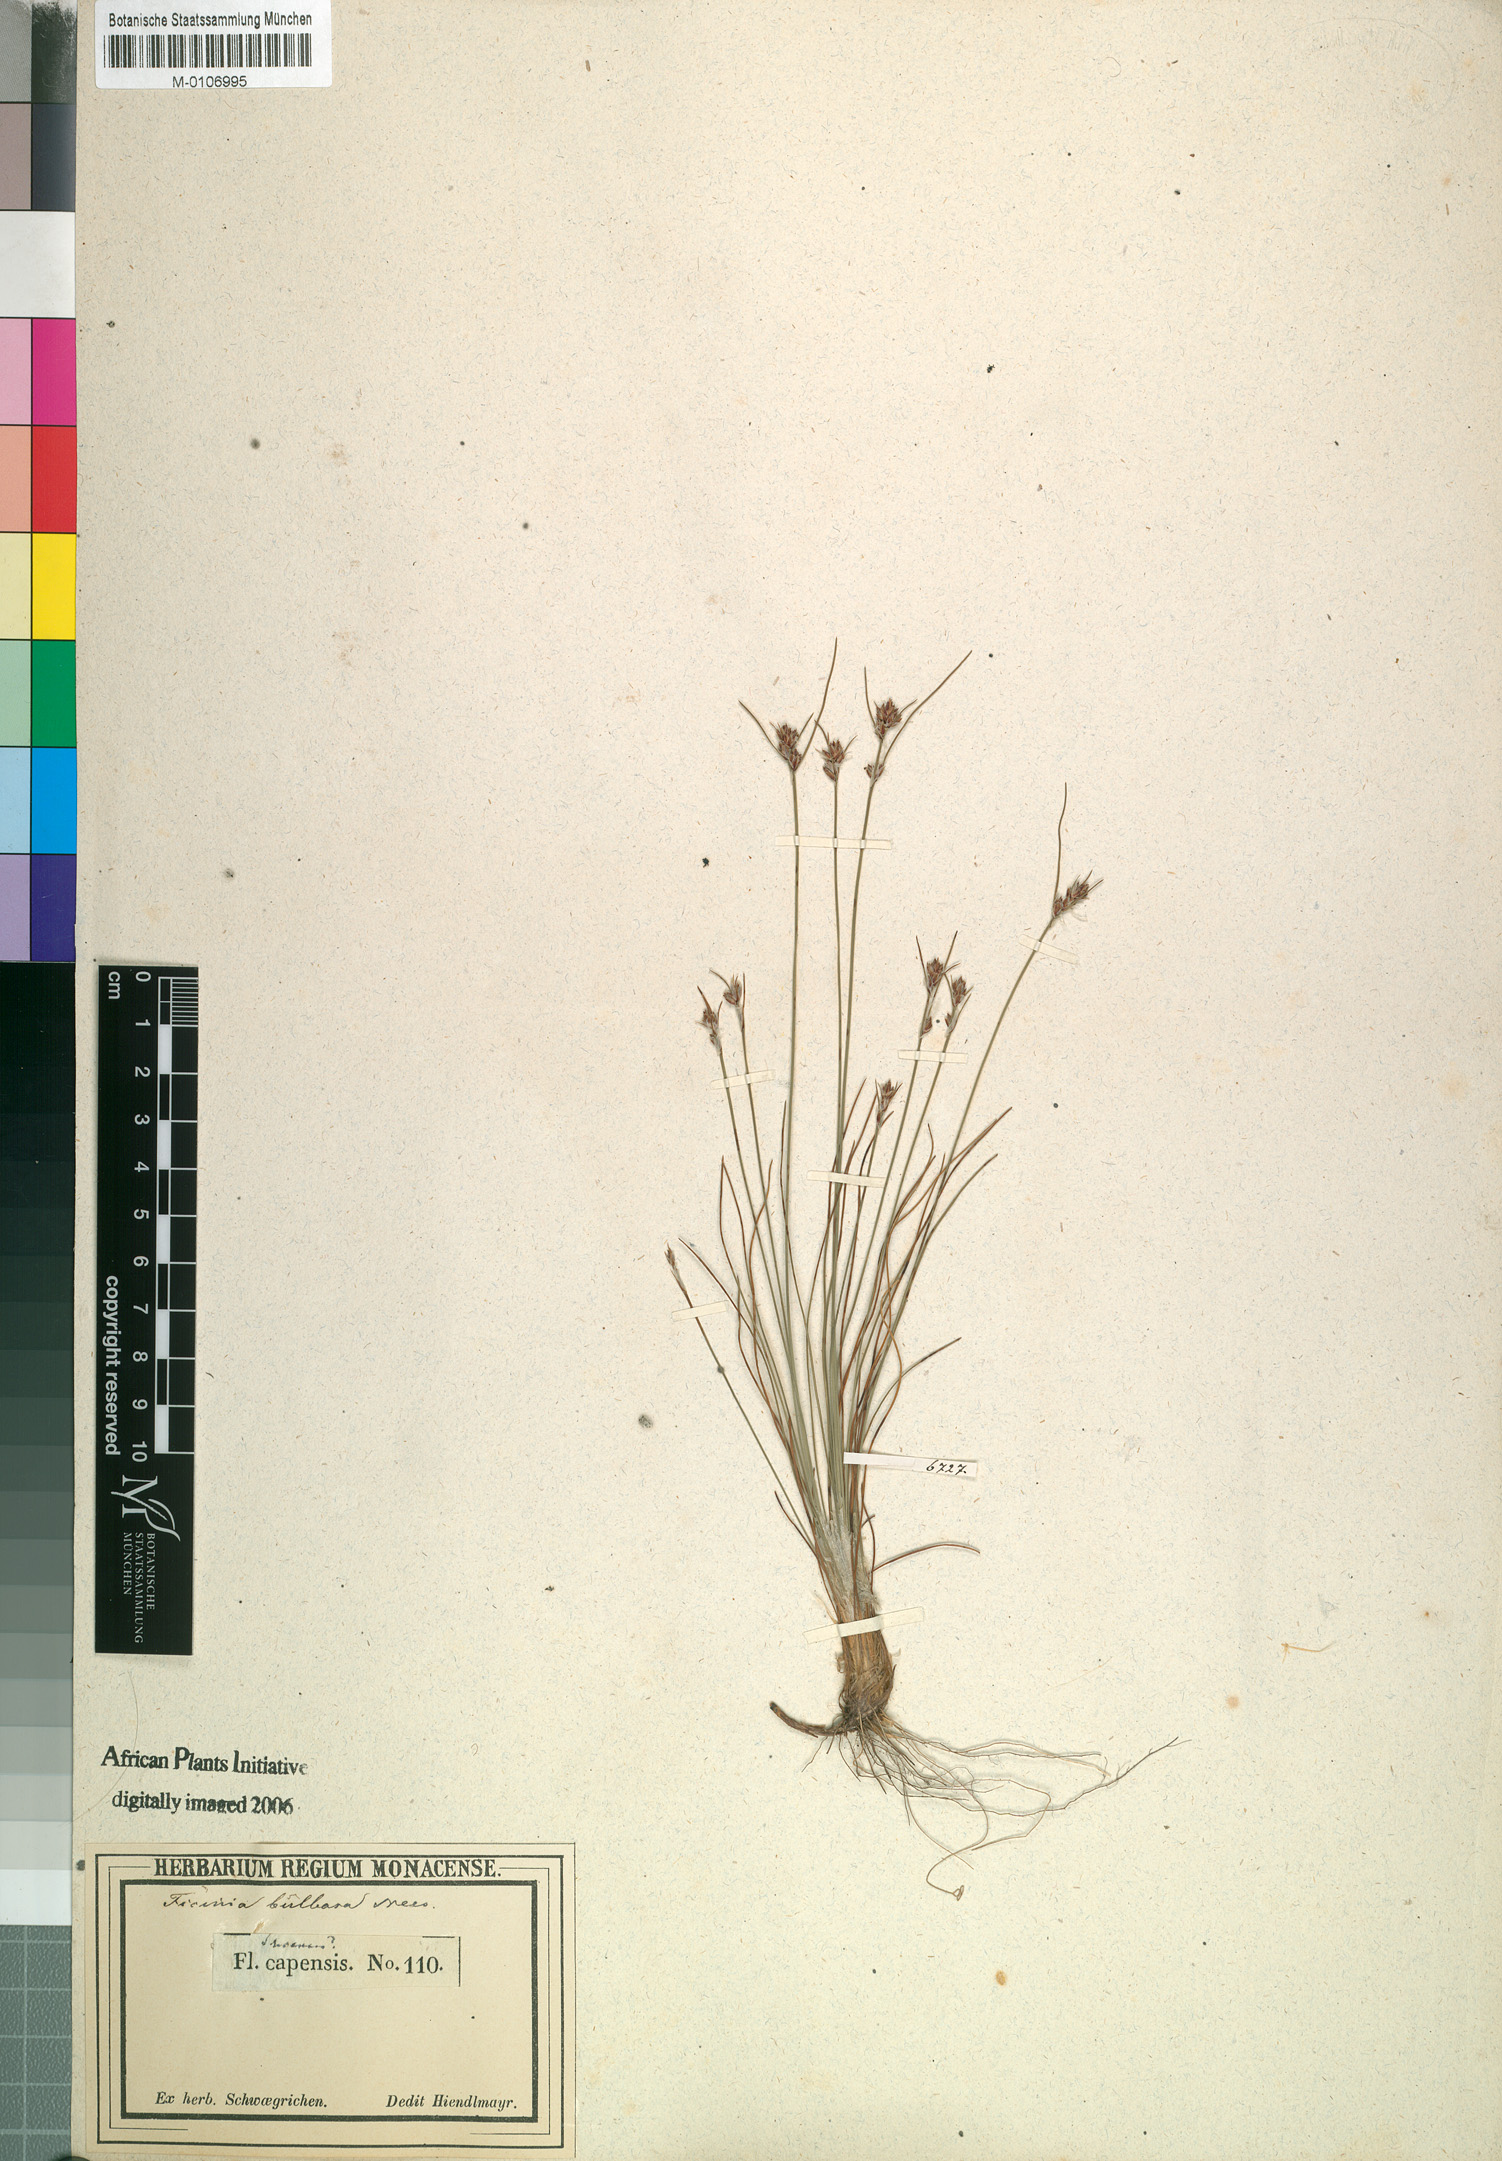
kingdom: Plantae
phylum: Tracheophyta
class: Liliopsida
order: Poales
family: Cyperaceae
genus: Ficinia
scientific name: Ficinia bulbosa
